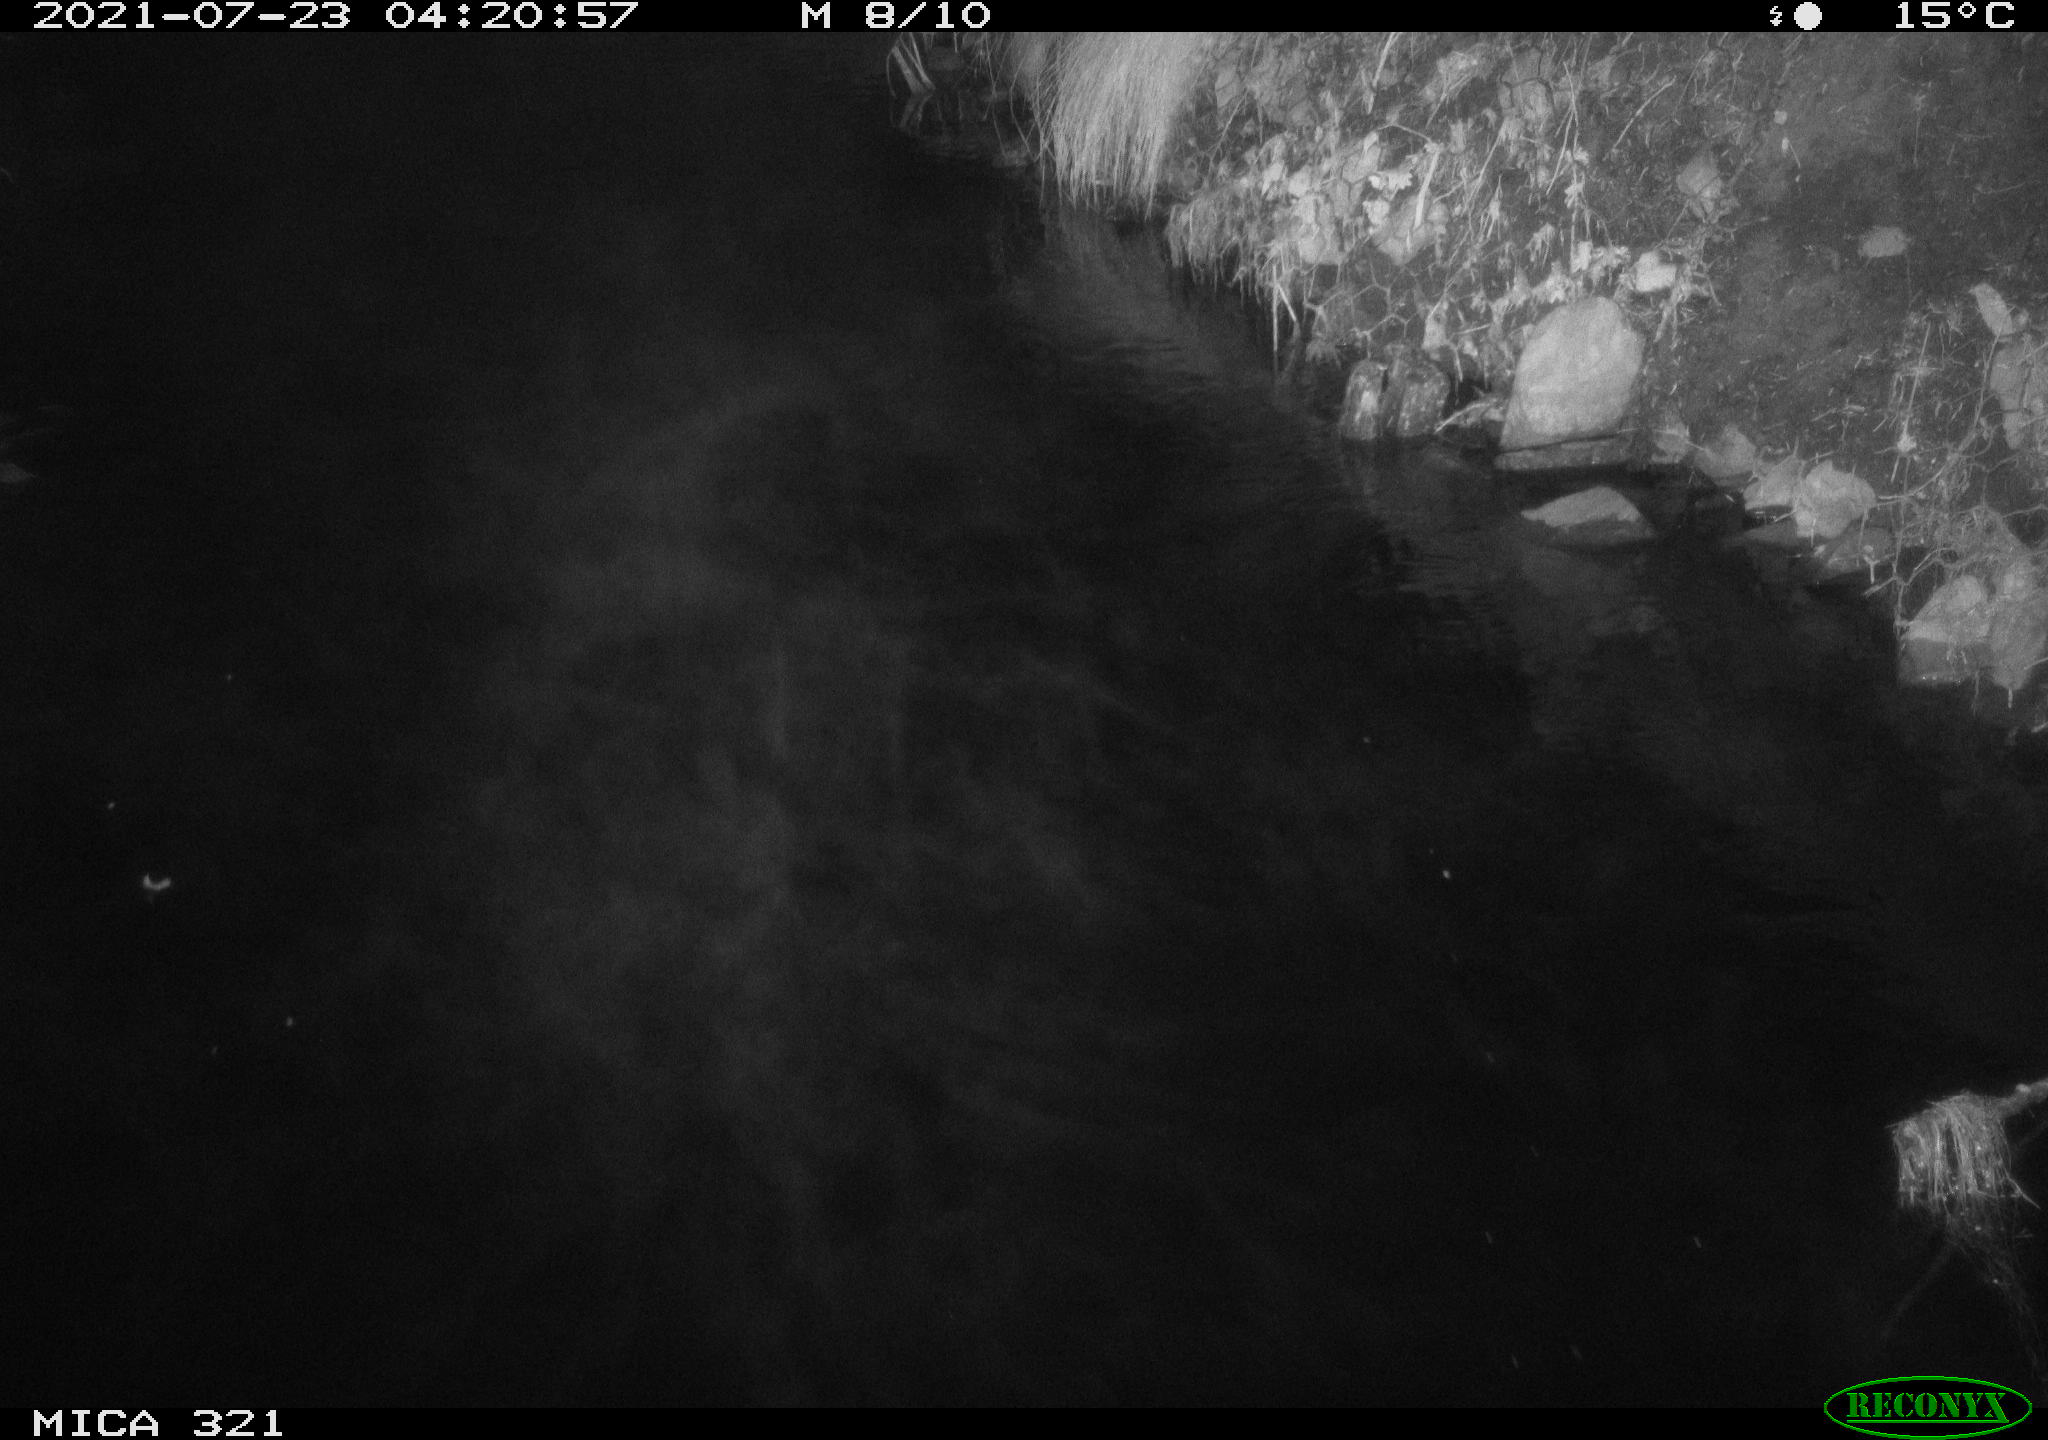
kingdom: Animalia
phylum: Chordata
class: Aves
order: Anseriformes
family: Anatidae
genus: Mareca
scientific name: Mareca strepera
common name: Gadwall
